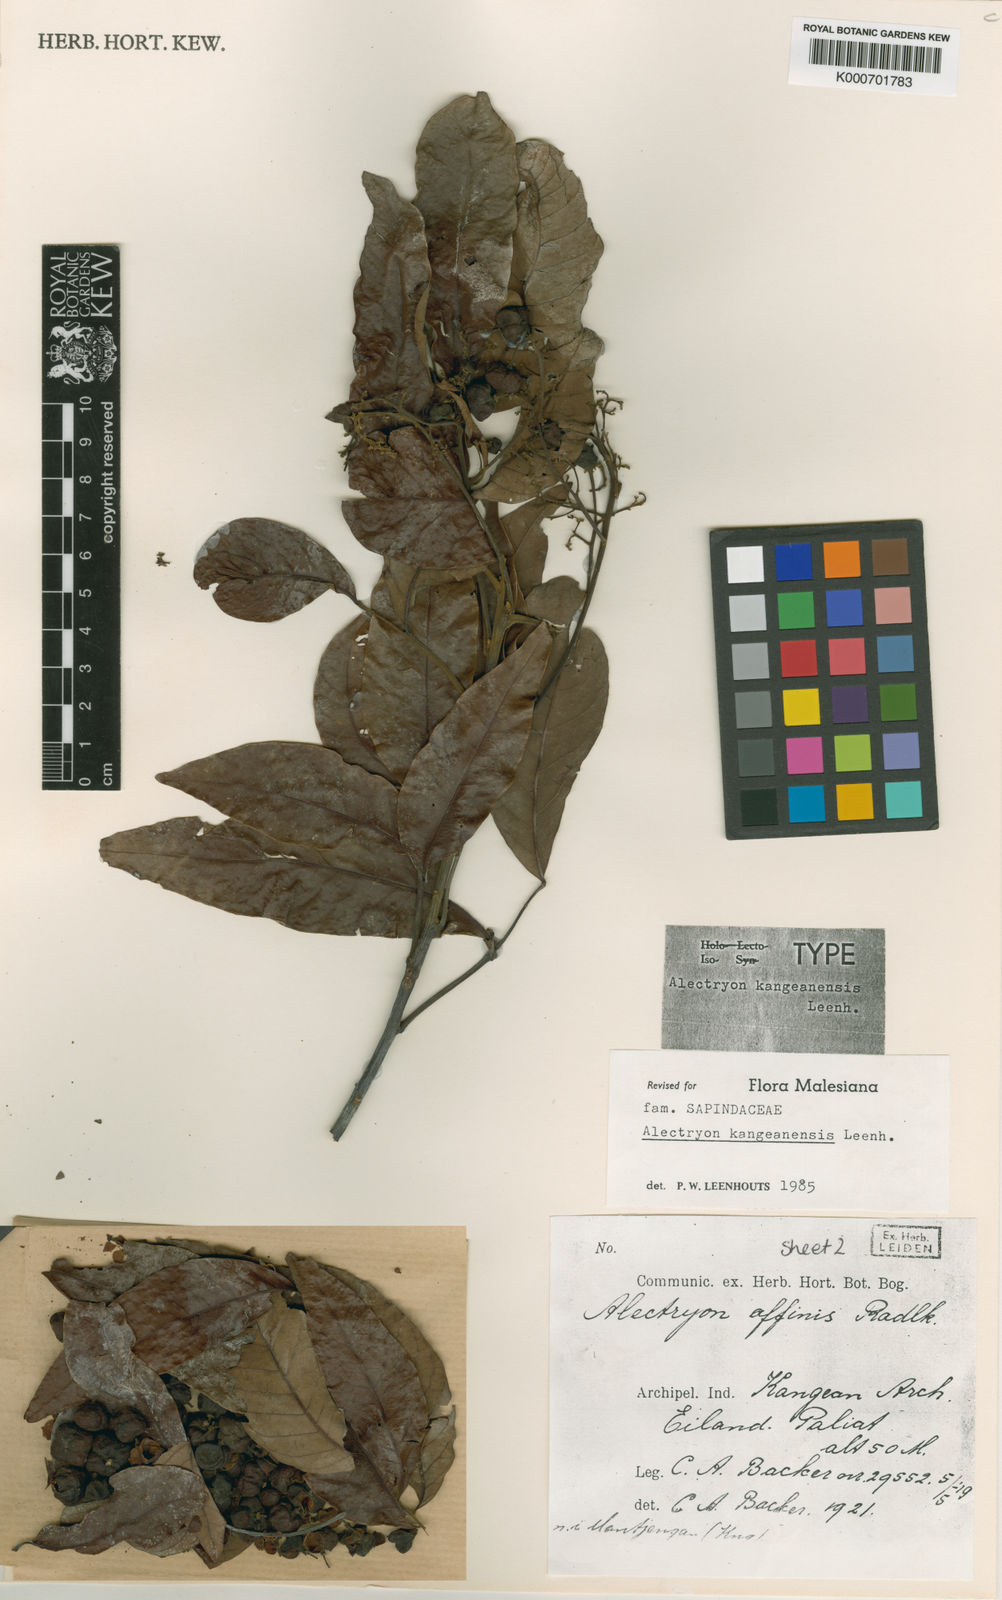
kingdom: Plantae
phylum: Tracheophyta
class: Magnoliopsida
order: Sapindales
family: Sapindaceae
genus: Alectryon
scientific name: Alectryon kangeanensis
